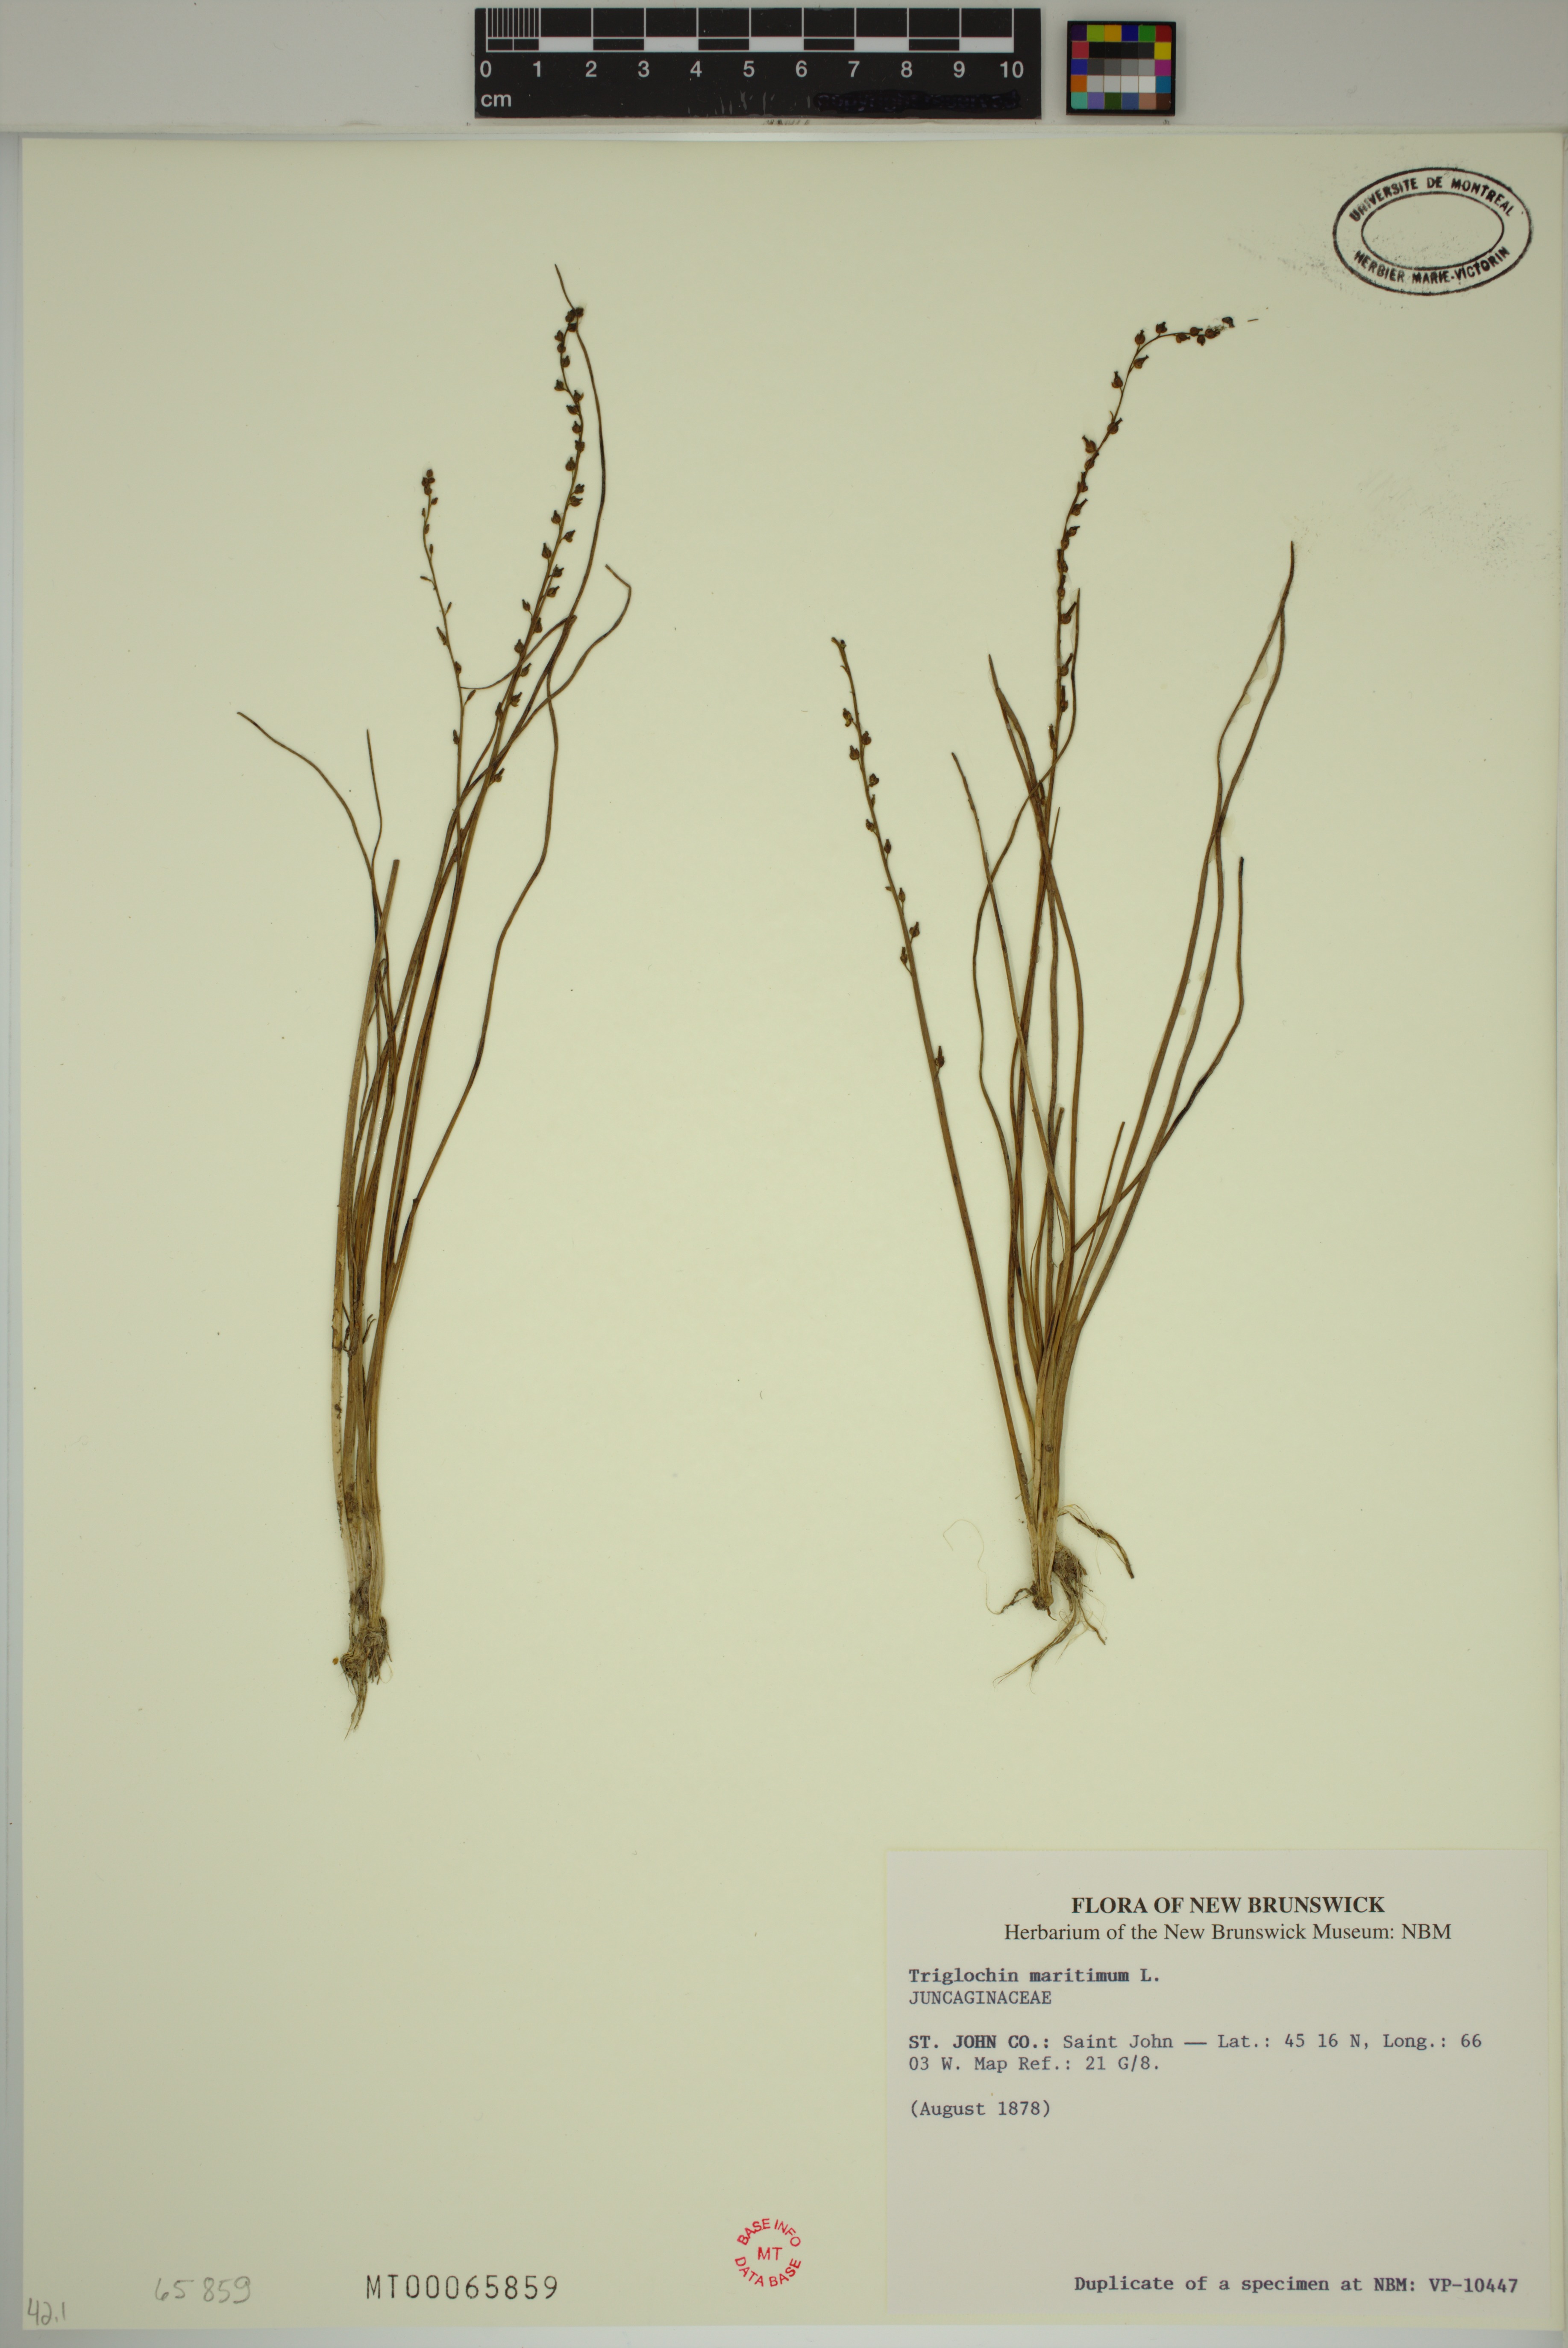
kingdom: Plantae
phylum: Tracheophyta
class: Liliopsida
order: Alismatales
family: Juncaginaceae
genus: Triglochin
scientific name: Triglochin maritima
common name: Sea arrowgrass
